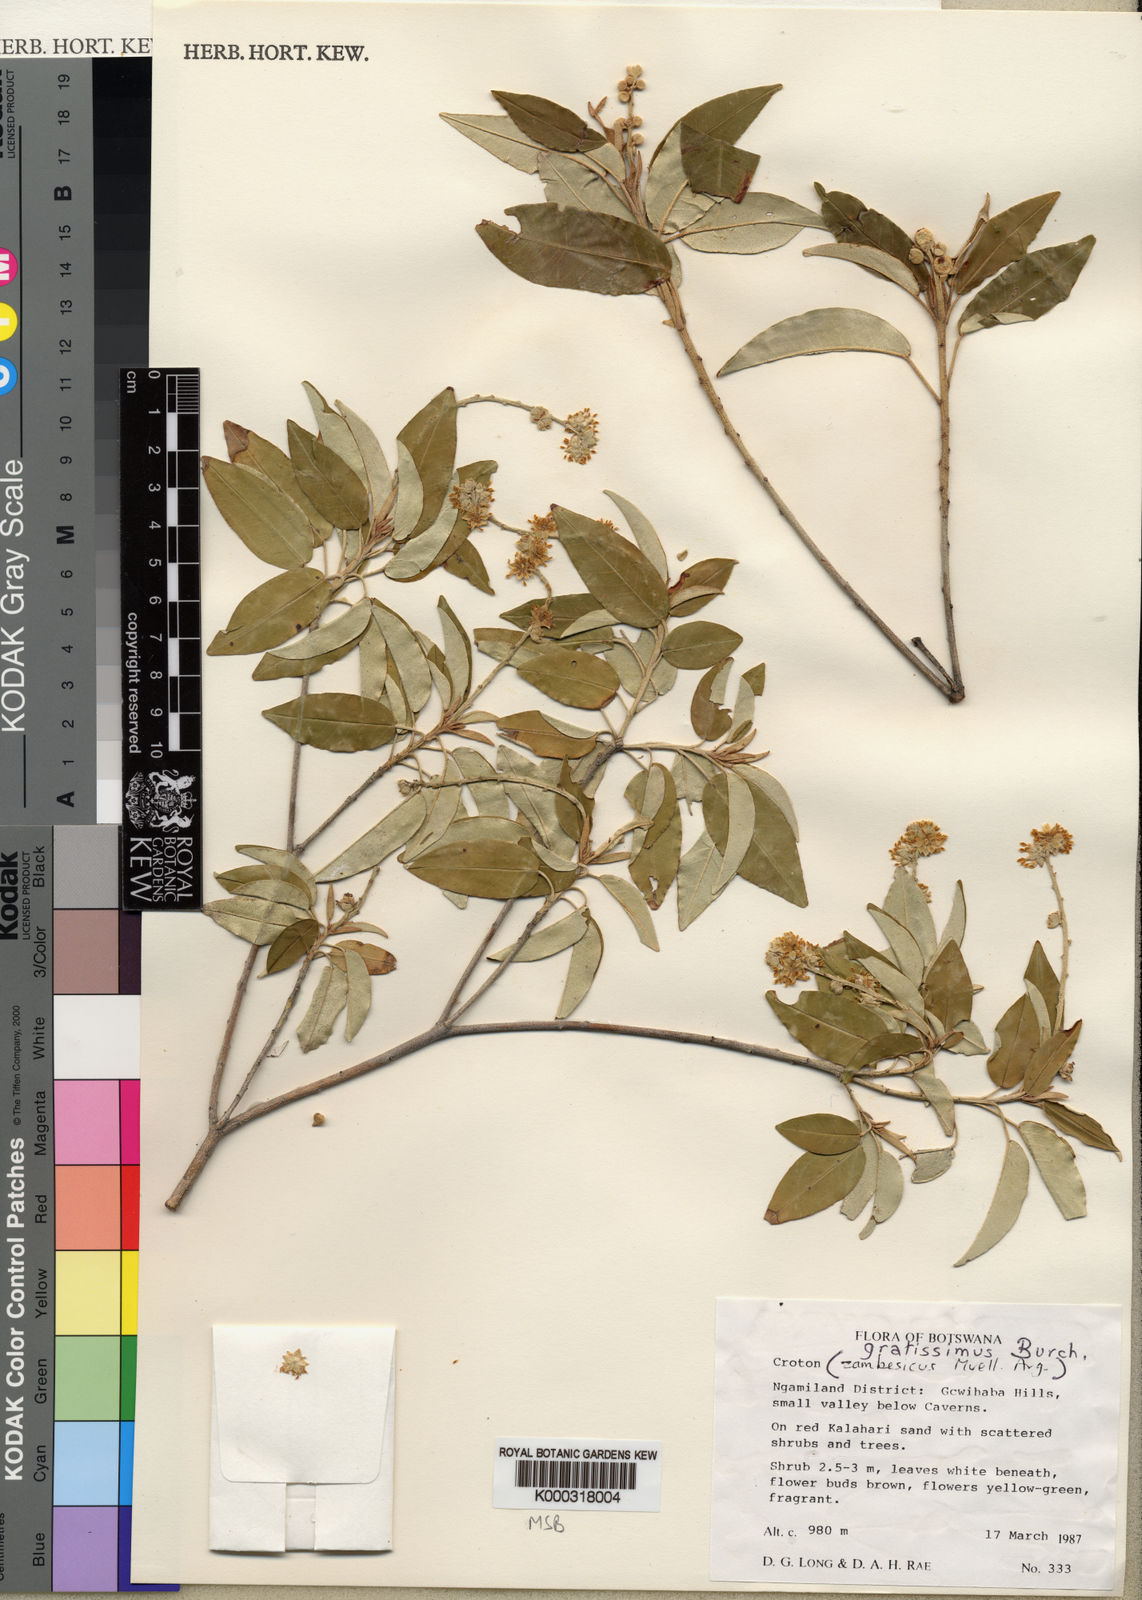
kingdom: Plantae
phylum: Tracheophyta
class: Magnoliopsida
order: Malpighiales
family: Euphorbiaceae
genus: Croton
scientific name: Croton gratissimus
